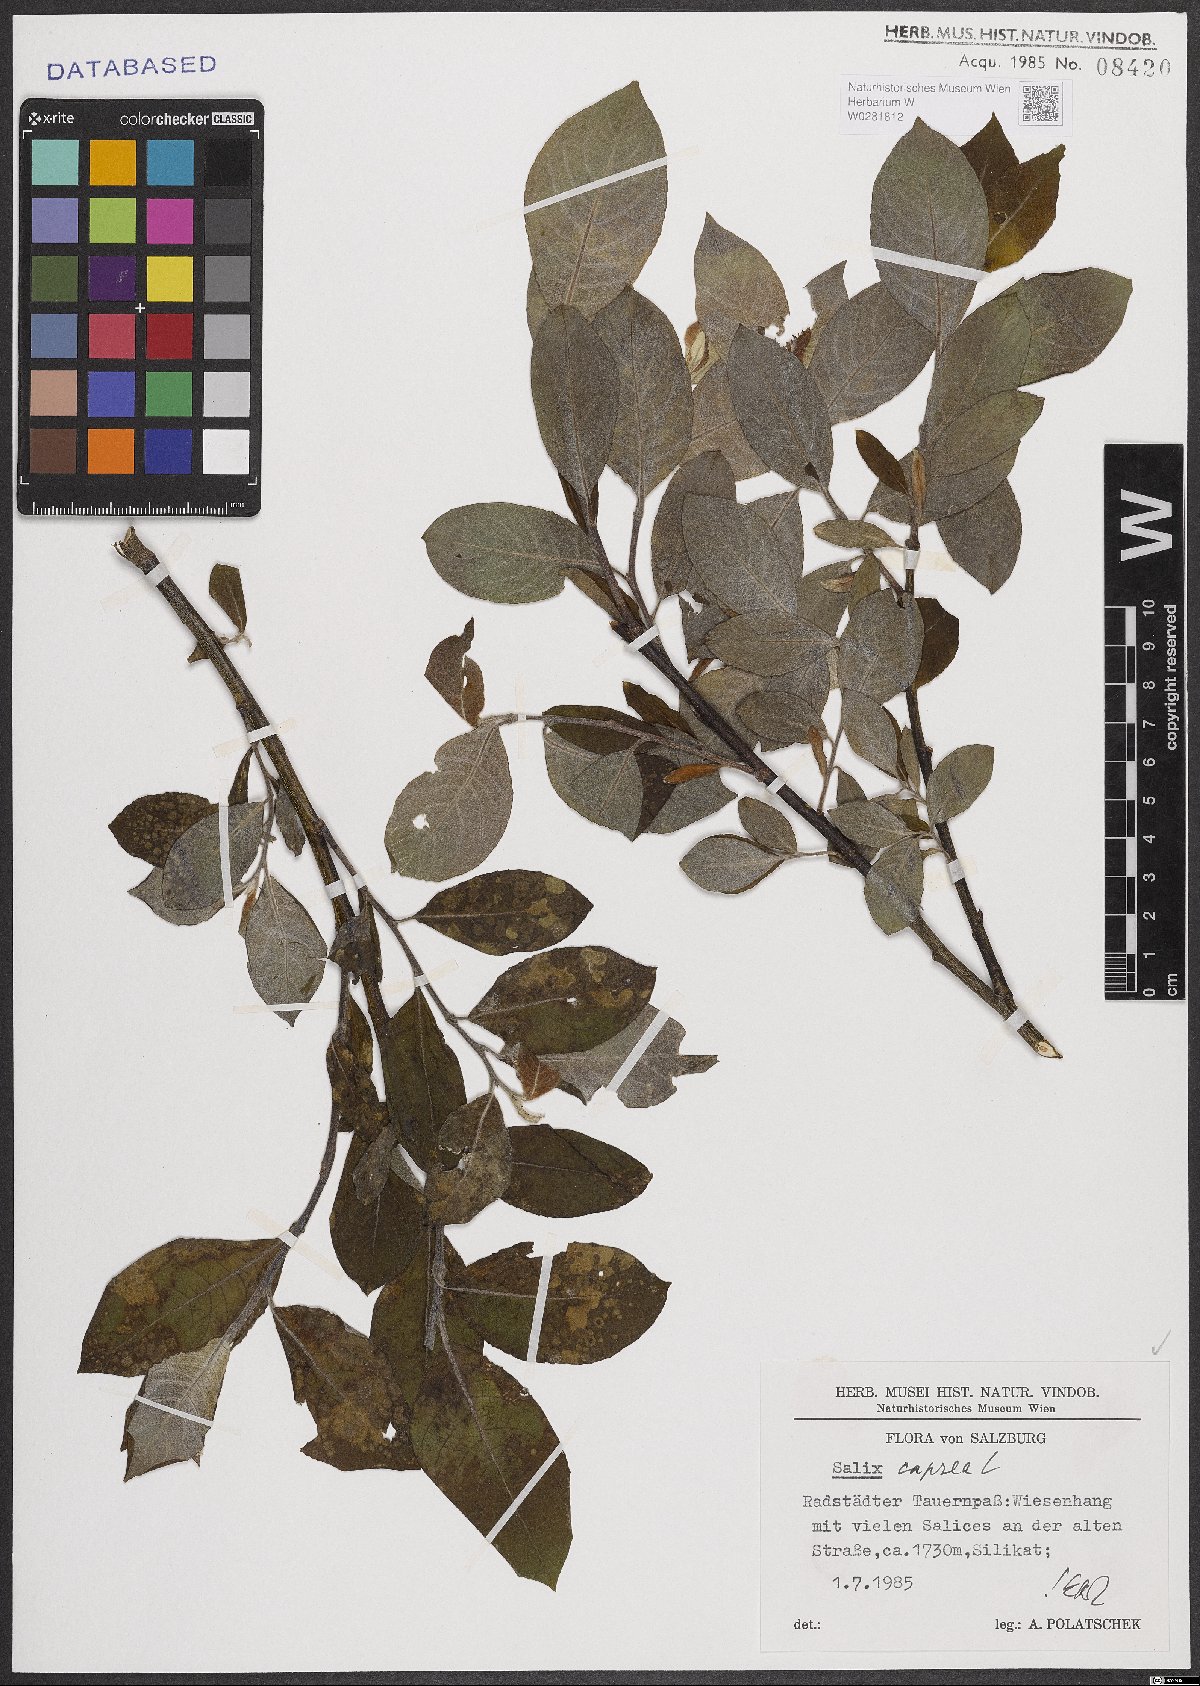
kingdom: Plantae
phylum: Tracheophyta
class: Magnoliopsida
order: Malpighiales
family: Salicaceae
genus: Salix
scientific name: Salix caprea
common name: Goat willow
